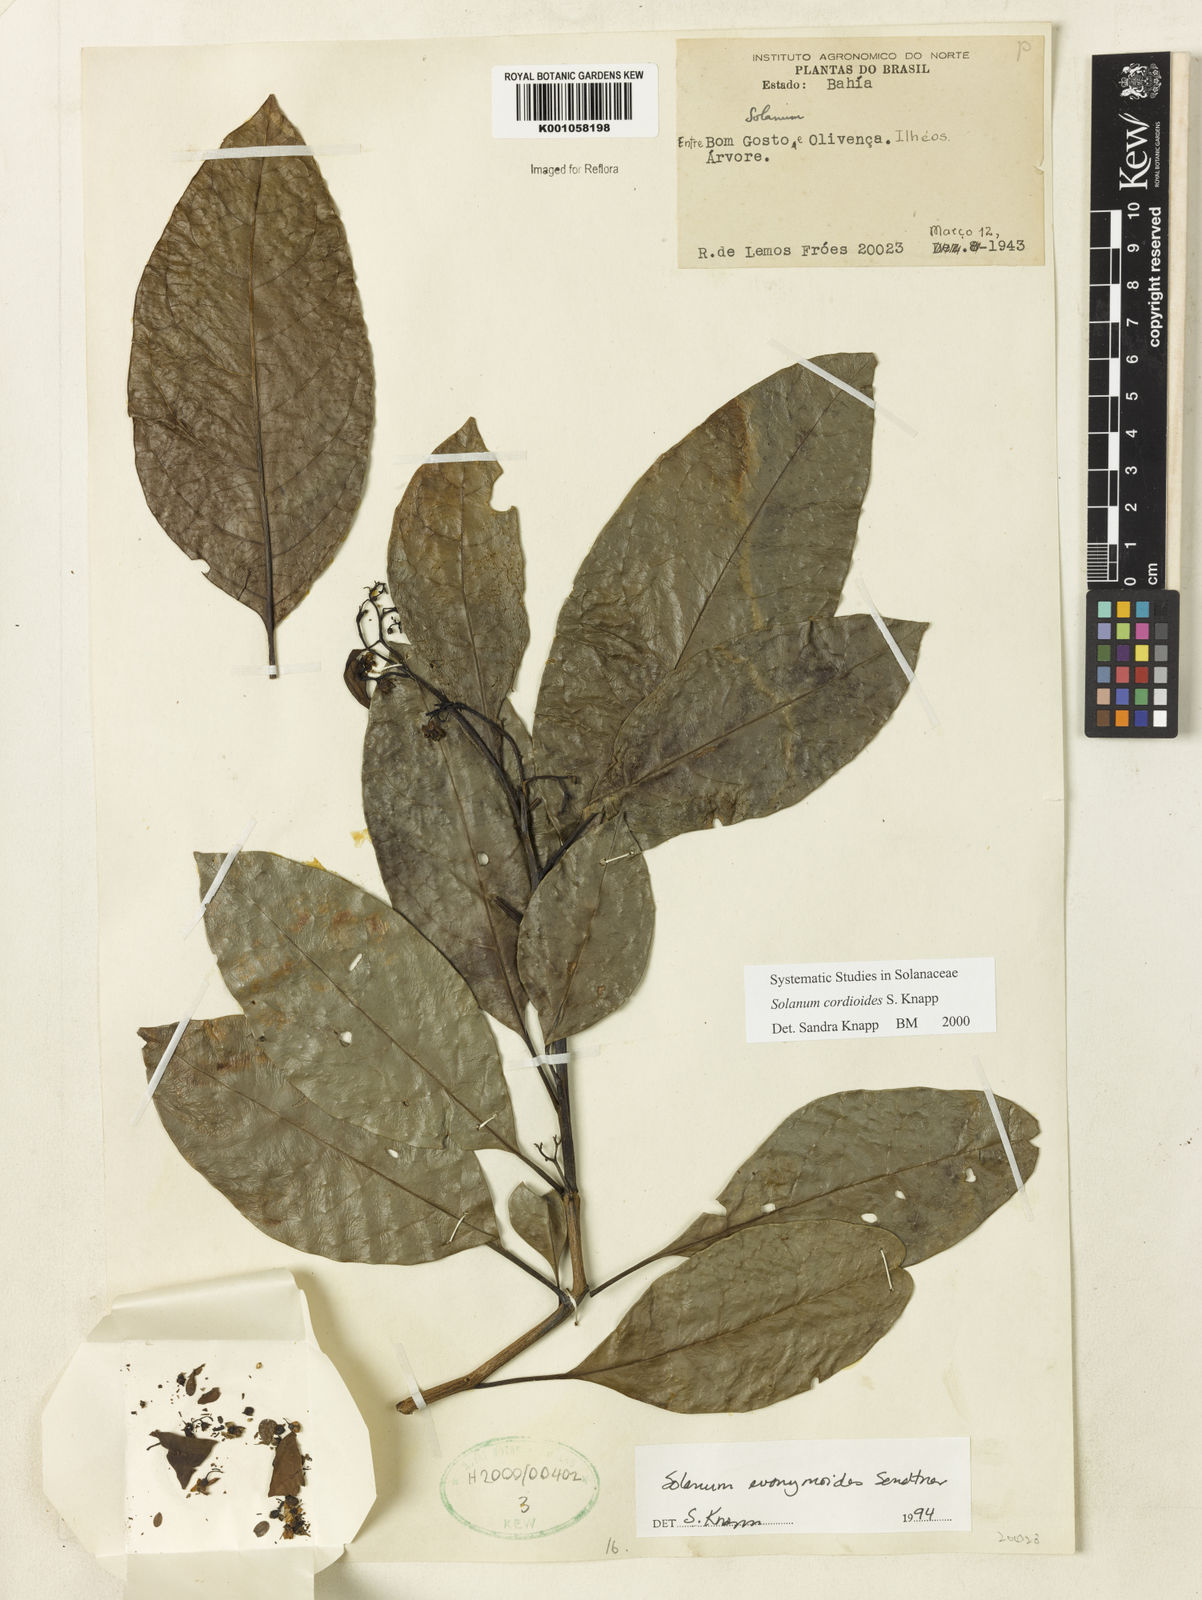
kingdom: Plantae
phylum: Tracheophyta
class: Magnoliopsida
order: Solanales
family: Solanaceae
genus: Solanum
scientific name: Solanum cordioides
